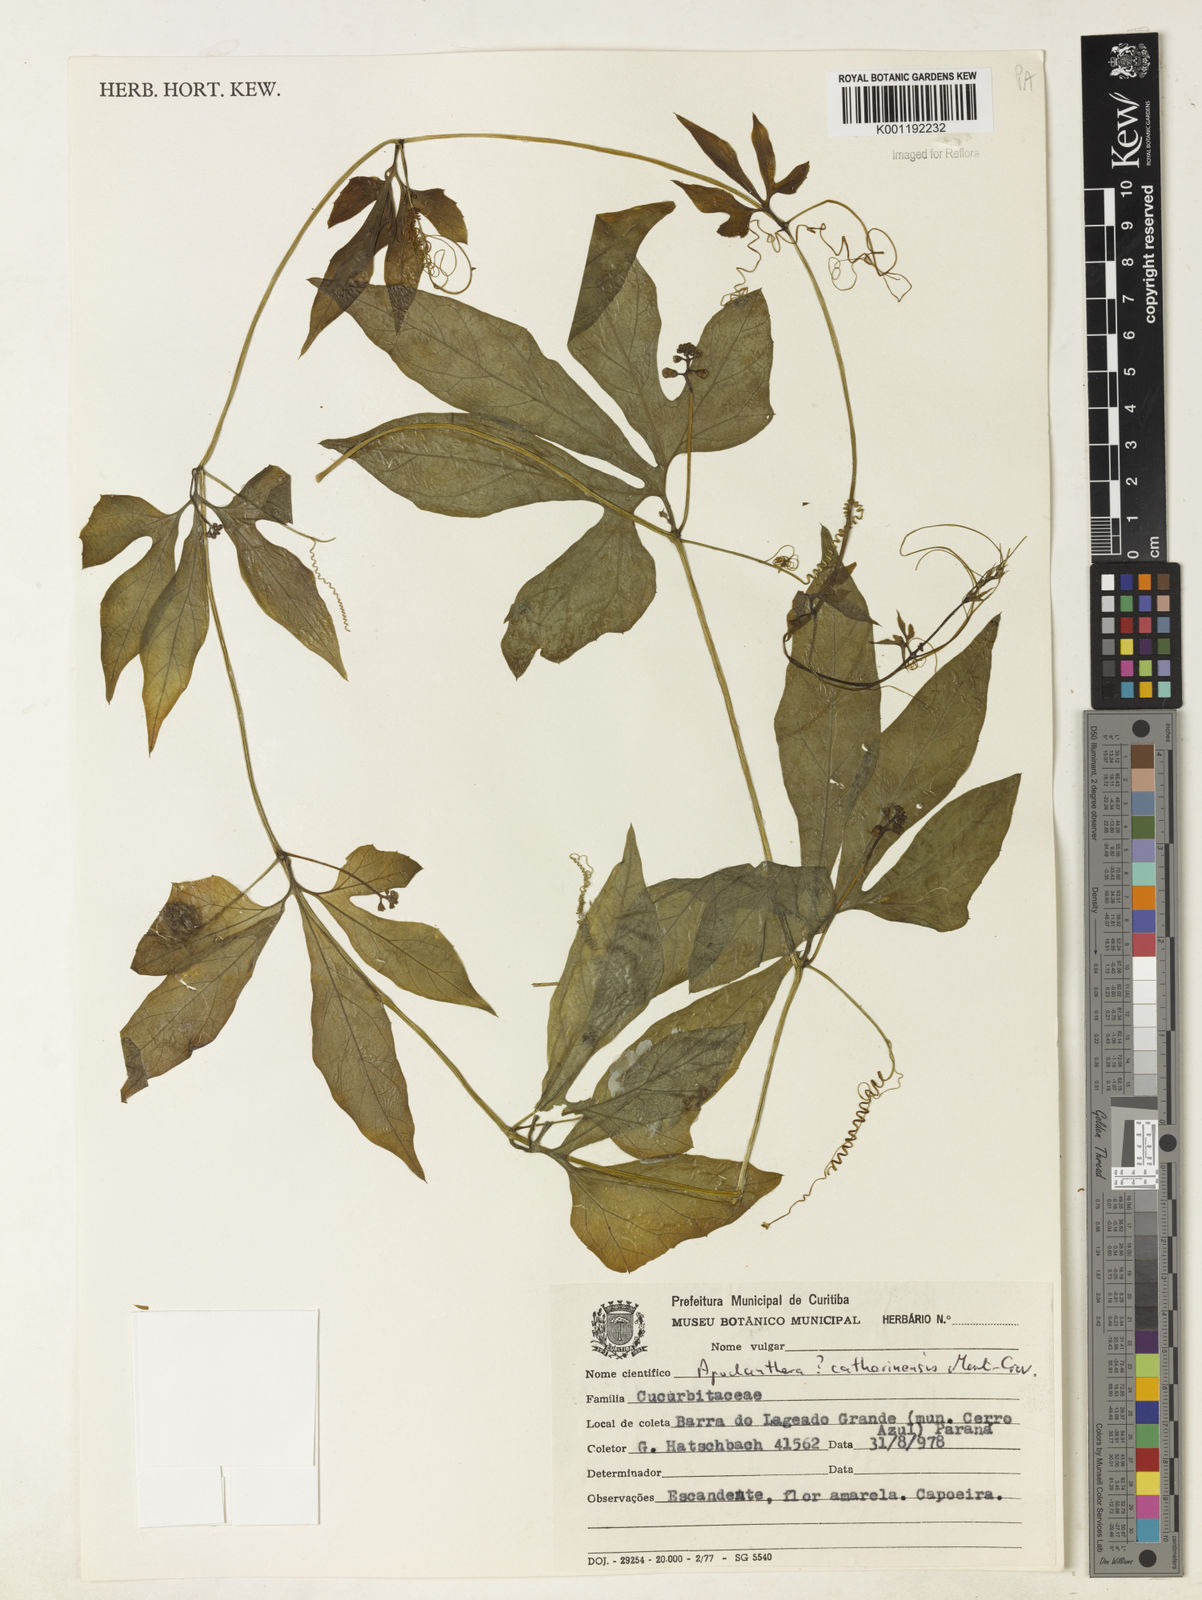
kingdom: Plantae
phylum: Tracheophyta
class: Magnoliopsida
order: Cucurbitales
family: Cucurbitaceae
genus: Apodanthera
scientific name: Apodanthera catharinensis
